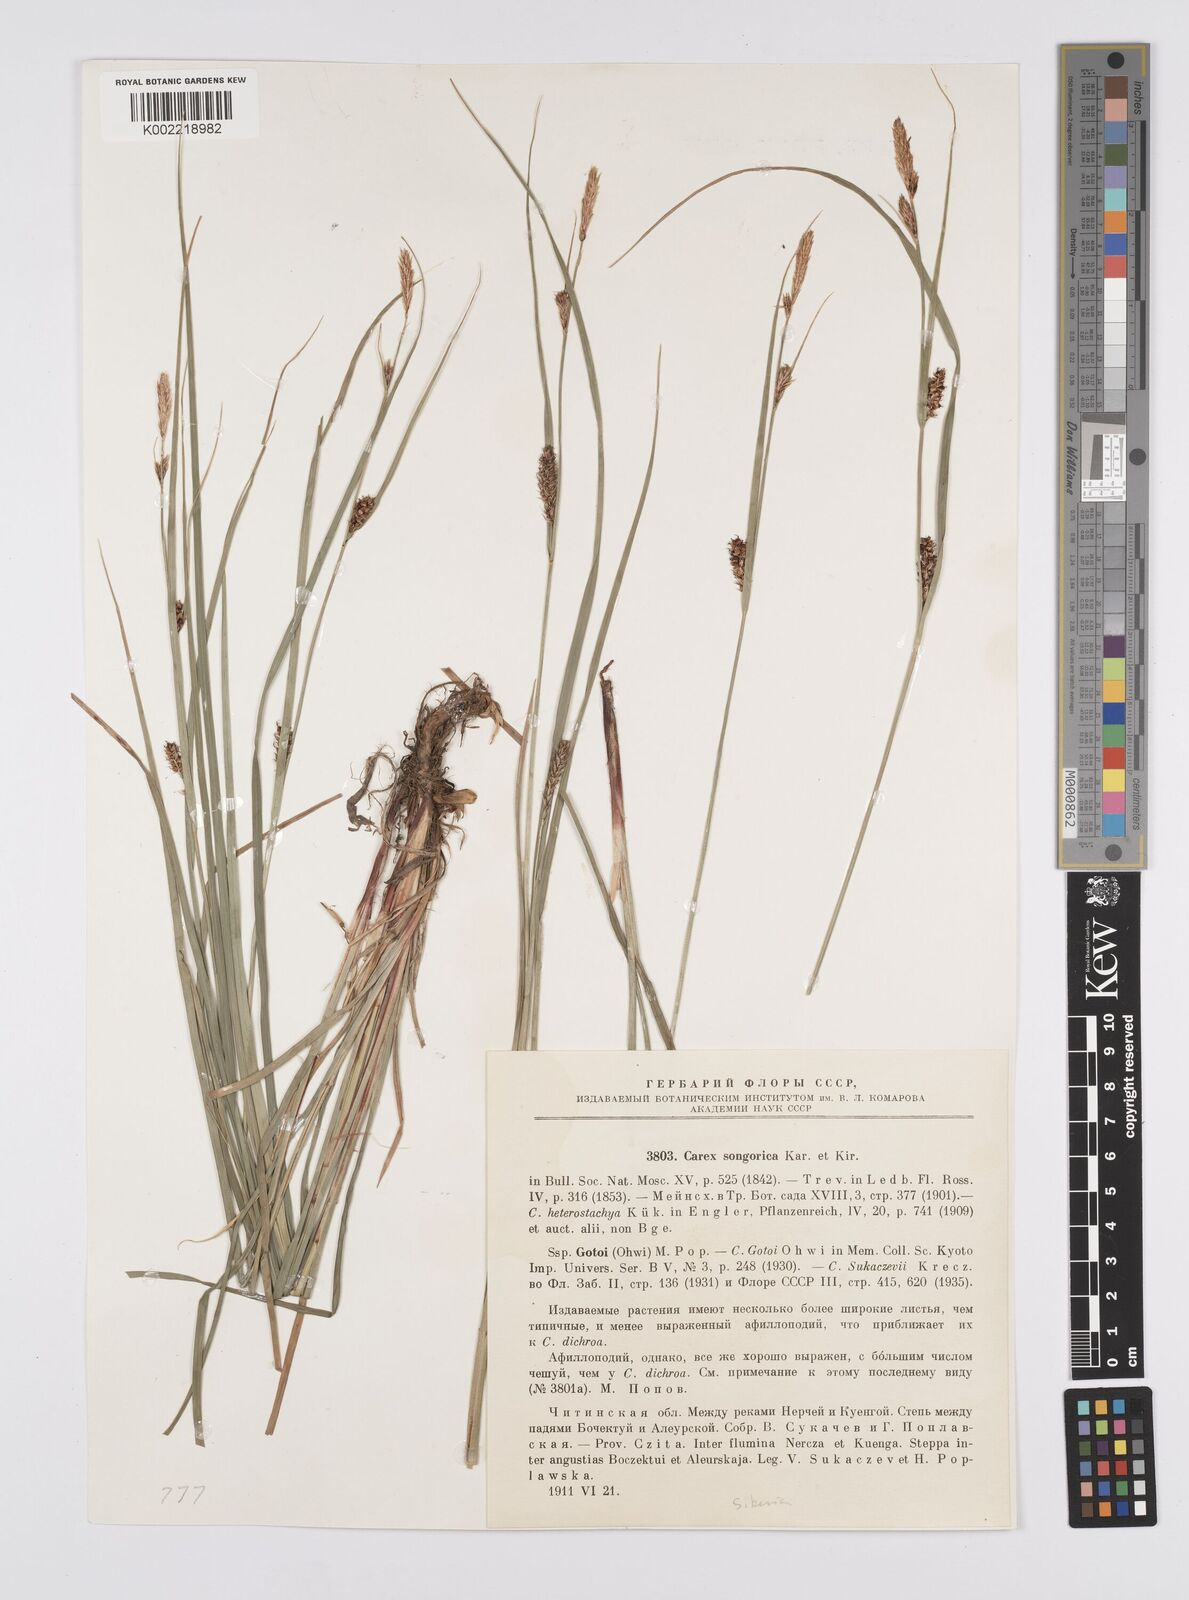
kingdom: Plantae
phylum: Tracheophyta
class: Liliopsida
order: Poales
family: Cyperaceae
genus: Carex
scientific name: Carex heterostachya
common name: Different-spike sedge
